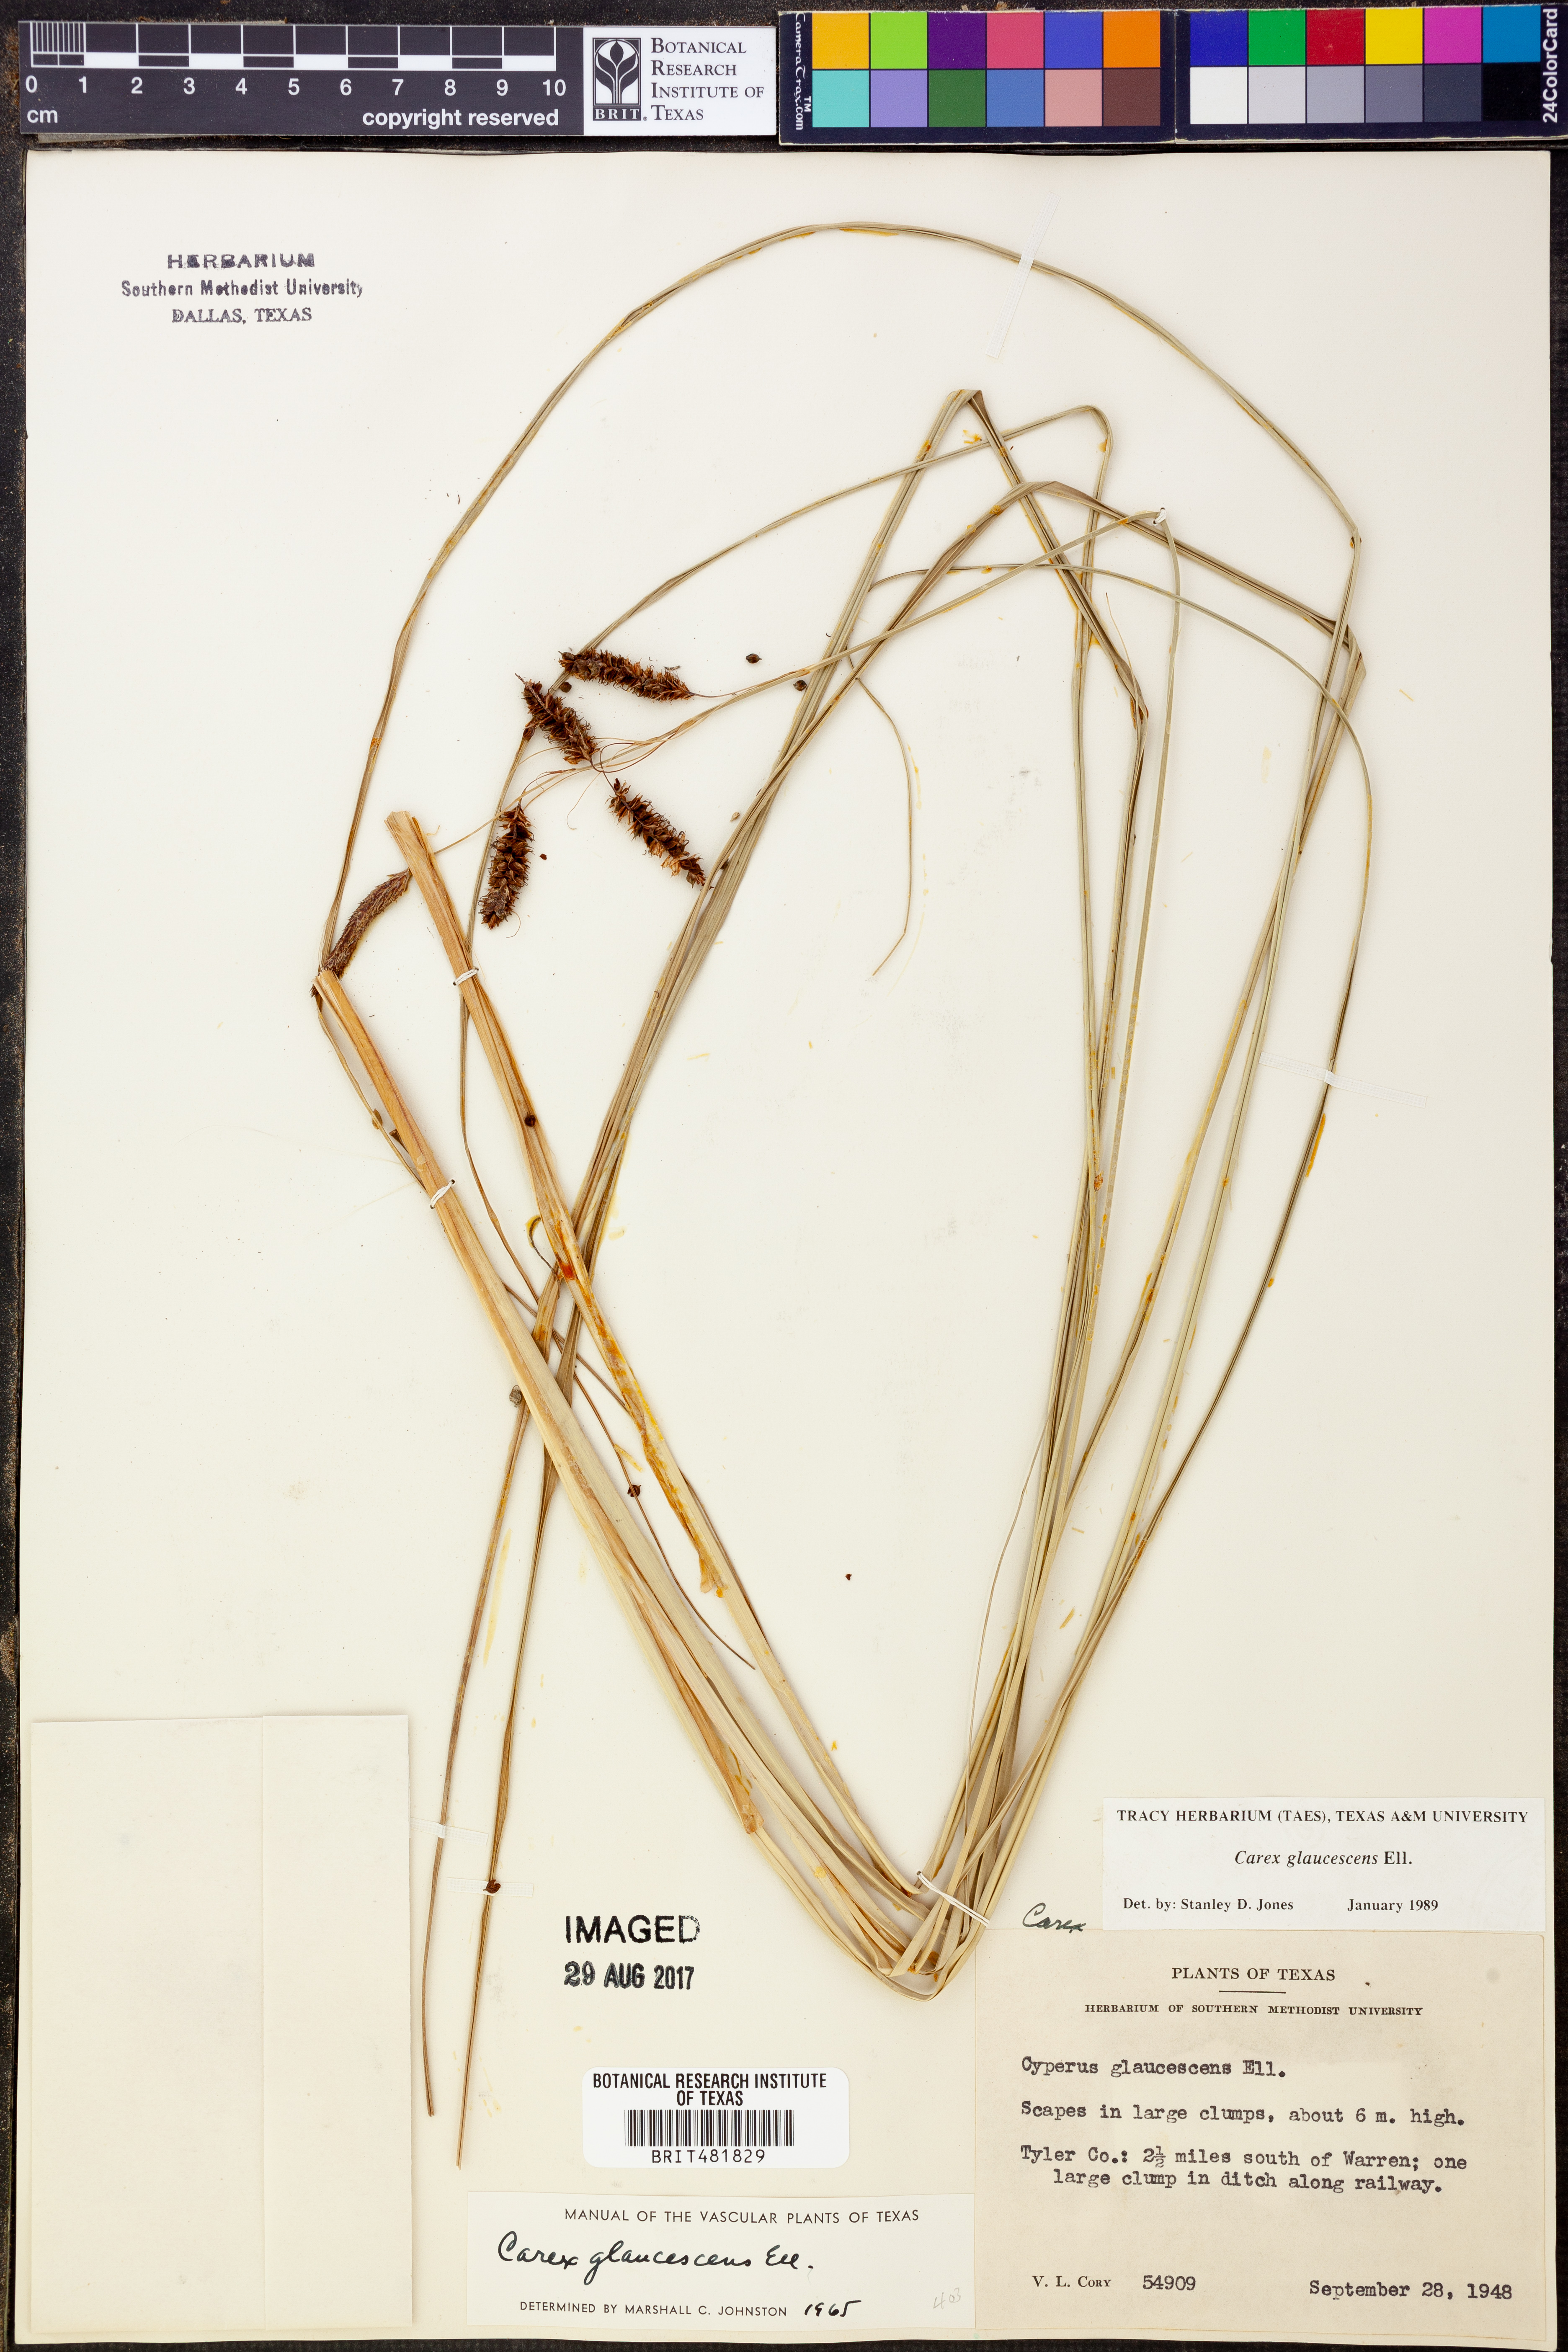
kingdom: Plantae
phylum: Tracheophyta
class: Liliopsida
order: Poales
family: Cyperaceae
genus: Carex
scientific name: Carex glaucescens
